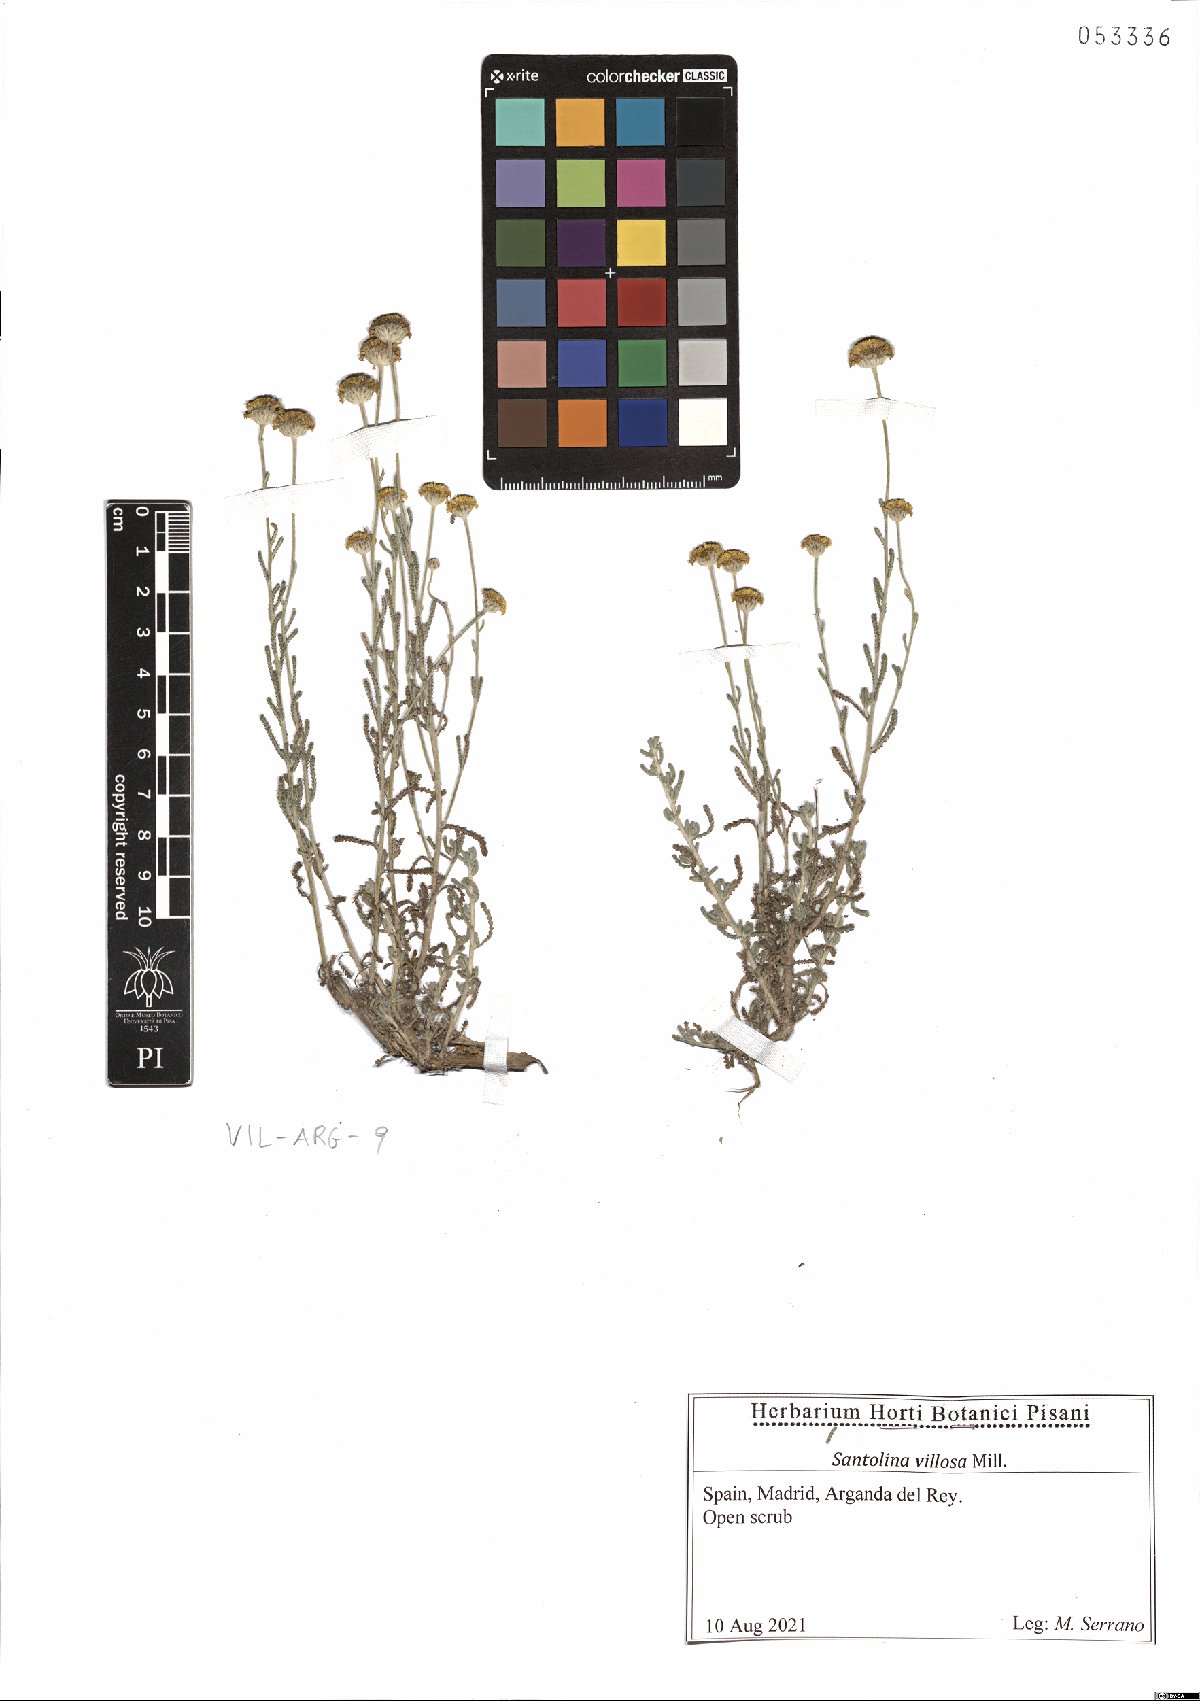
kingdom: Plantae
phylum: Tracheophyta
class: Magnoliopsida
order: Asterales
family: Asteraceae
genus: Santolina
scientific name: Santolina chamaecyparissus
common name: Lavender-cotton
